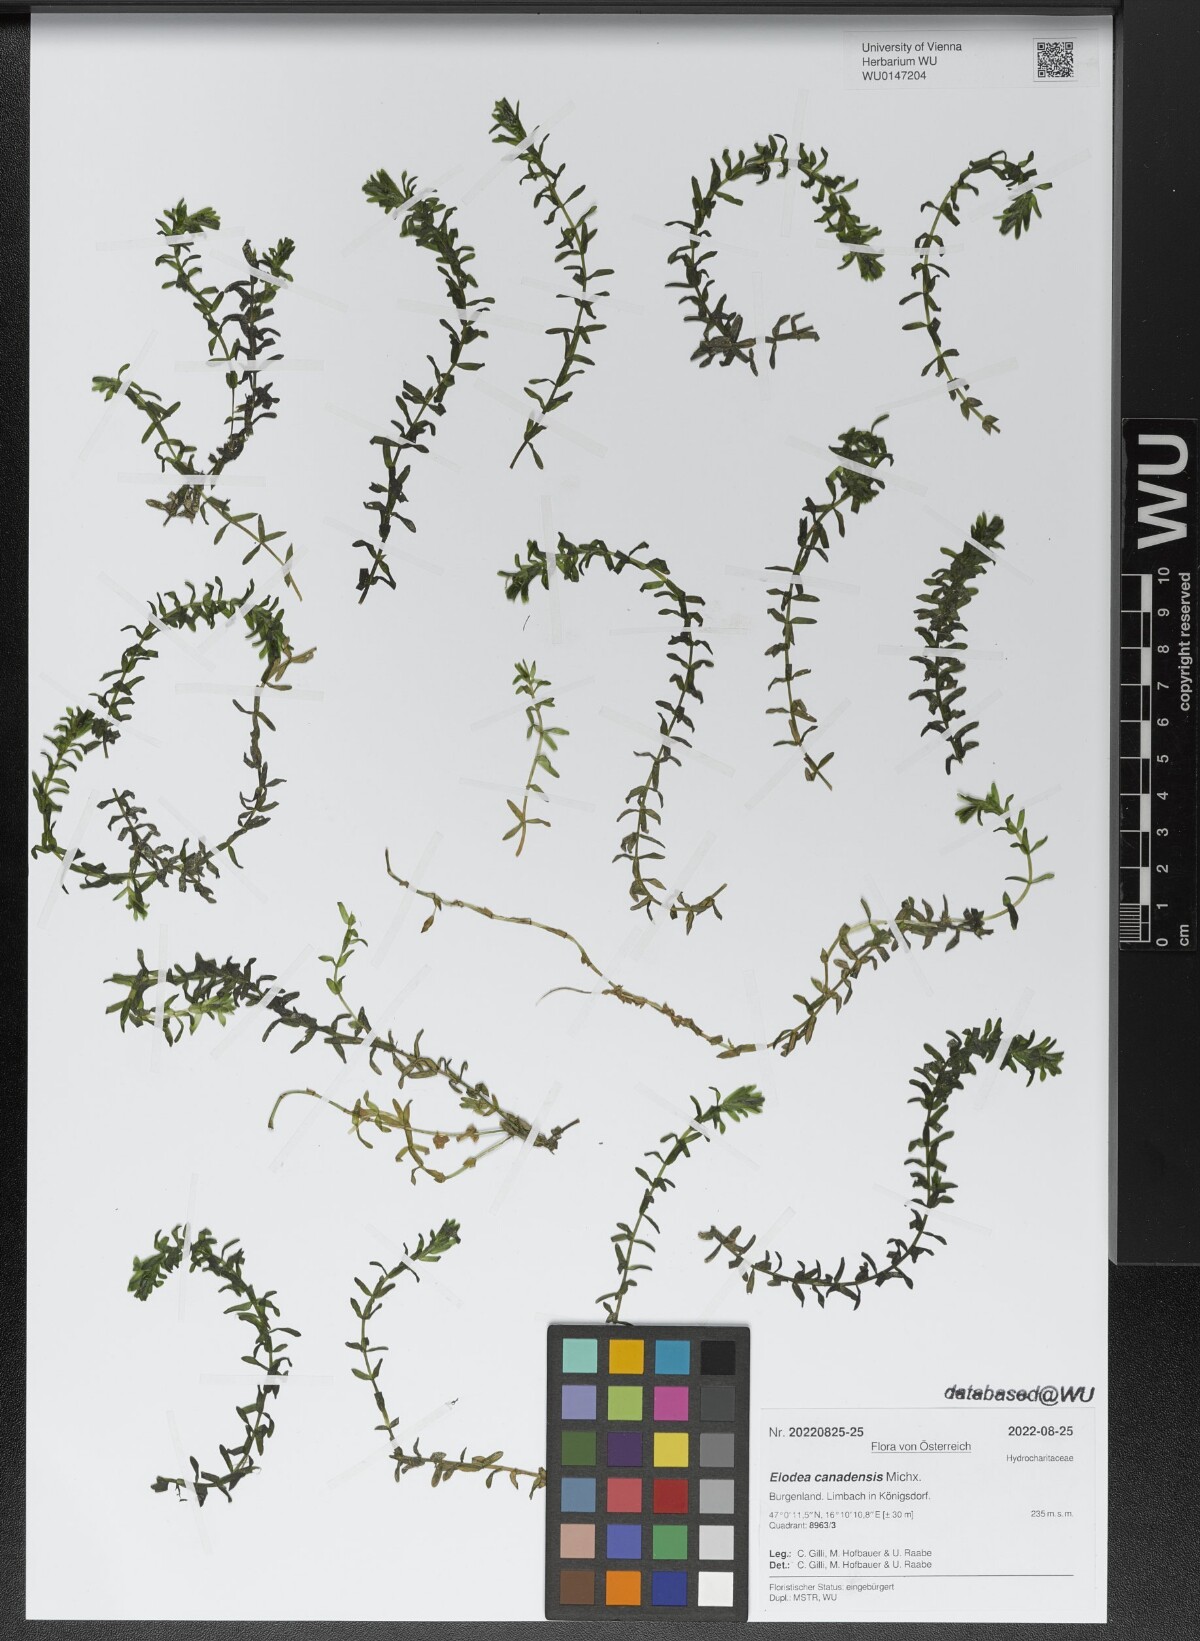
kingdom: Plantae
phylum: Tracheophyta
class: Liliopsida
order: Alismatales
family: Hydrocharitaceae
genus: Elodea
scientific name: Elodea canadensis
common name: Canadian waterweed
